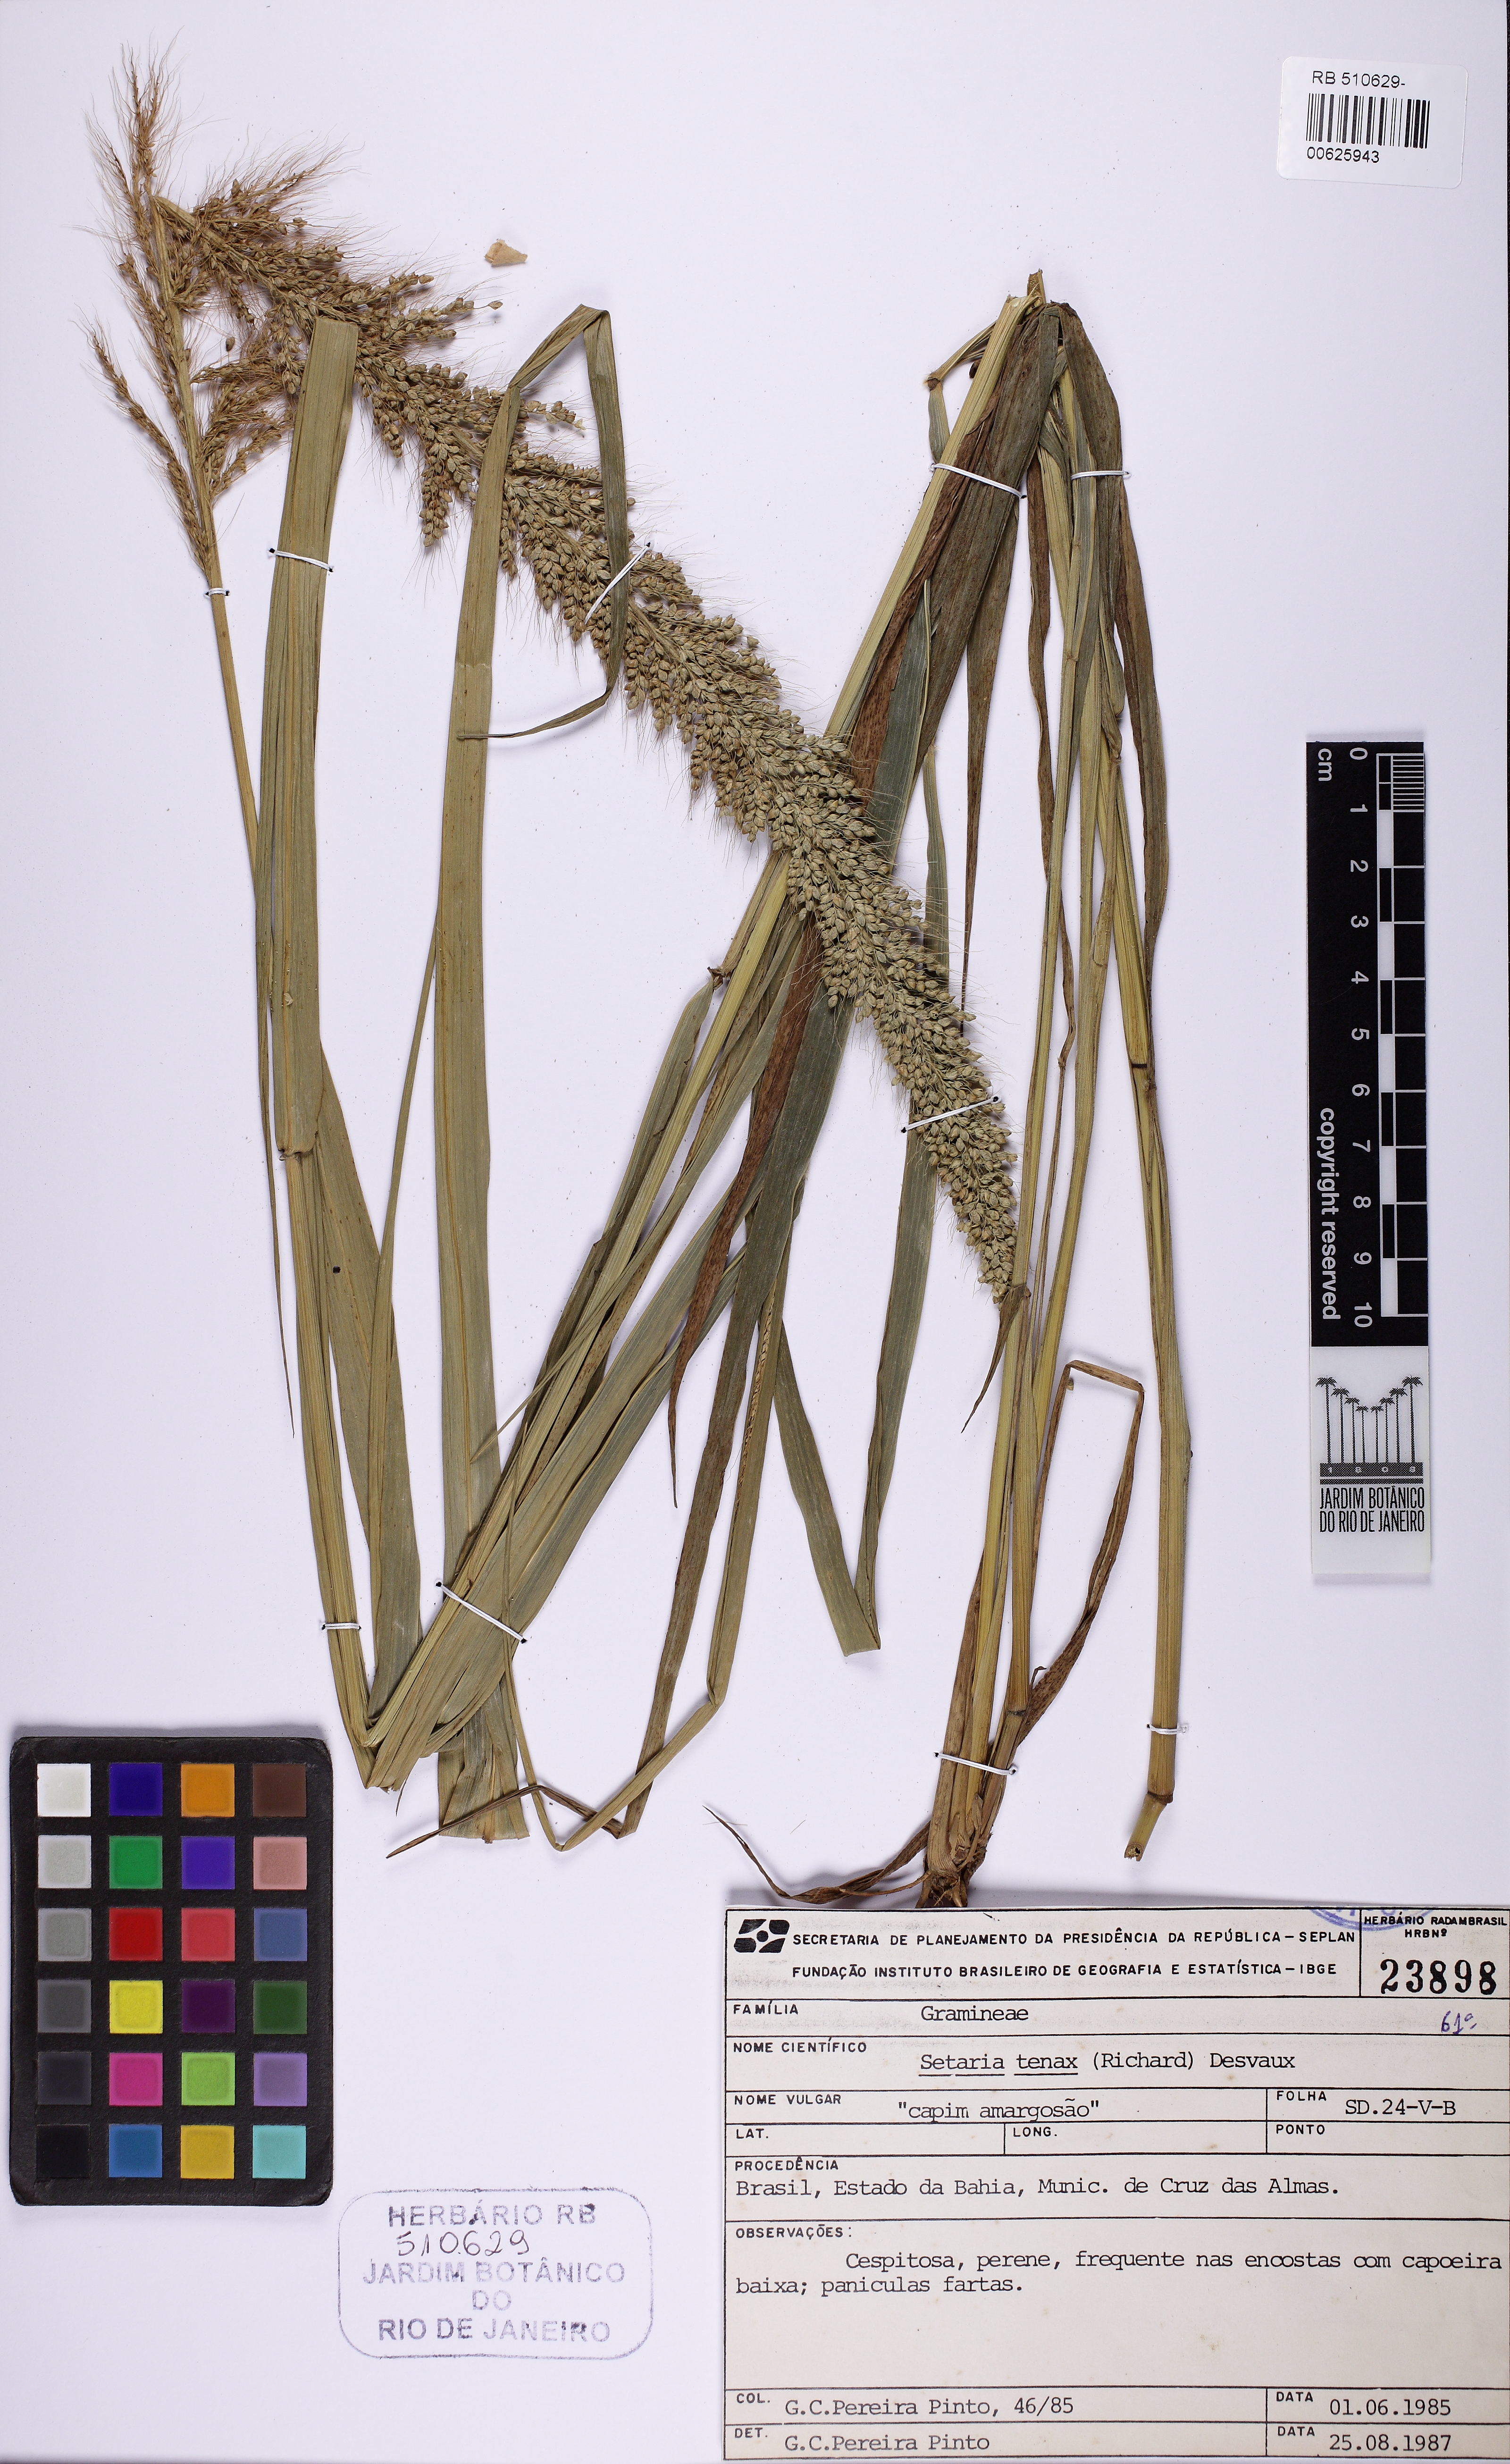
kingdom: Plantae
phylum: Tracheophyta
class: Liliopsida
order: Poales
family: Poaceae
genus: Setaria
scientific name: Setaria tenax
